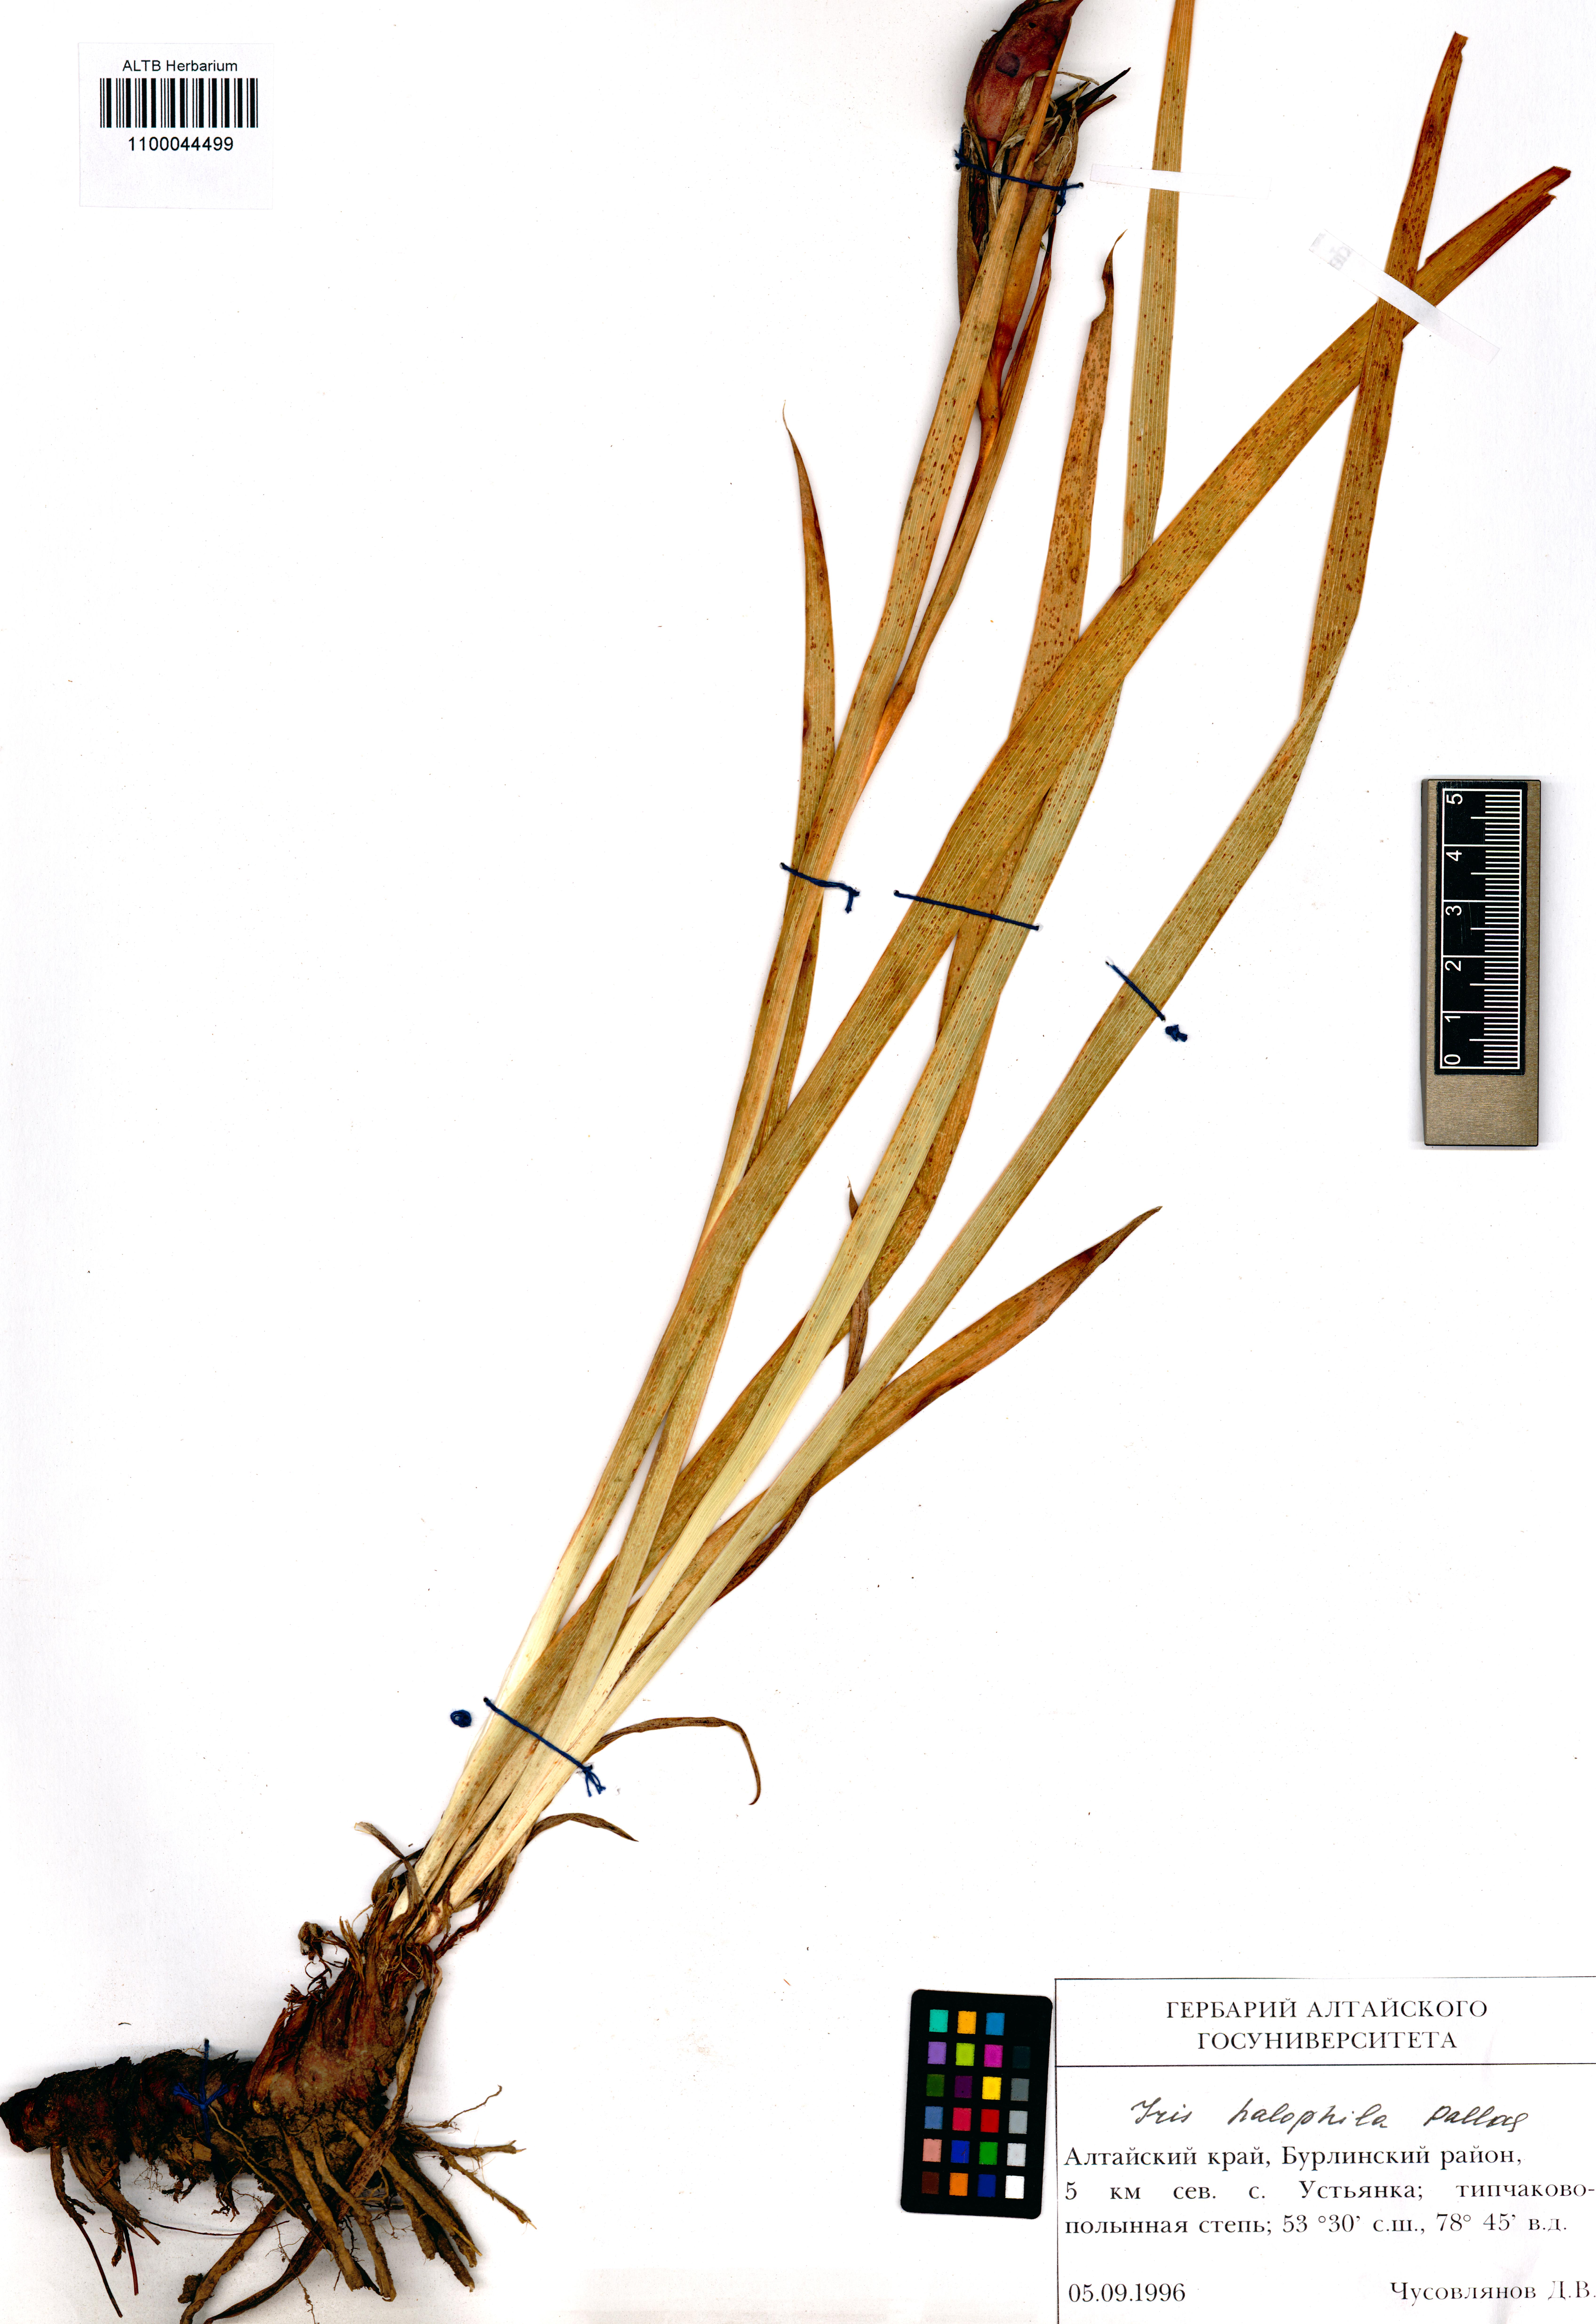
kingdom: Plantae
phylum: Tracheophyta
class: Liliopsida
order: Asparagales
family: Iridaceae
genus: Iris
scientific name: Iris halophila
